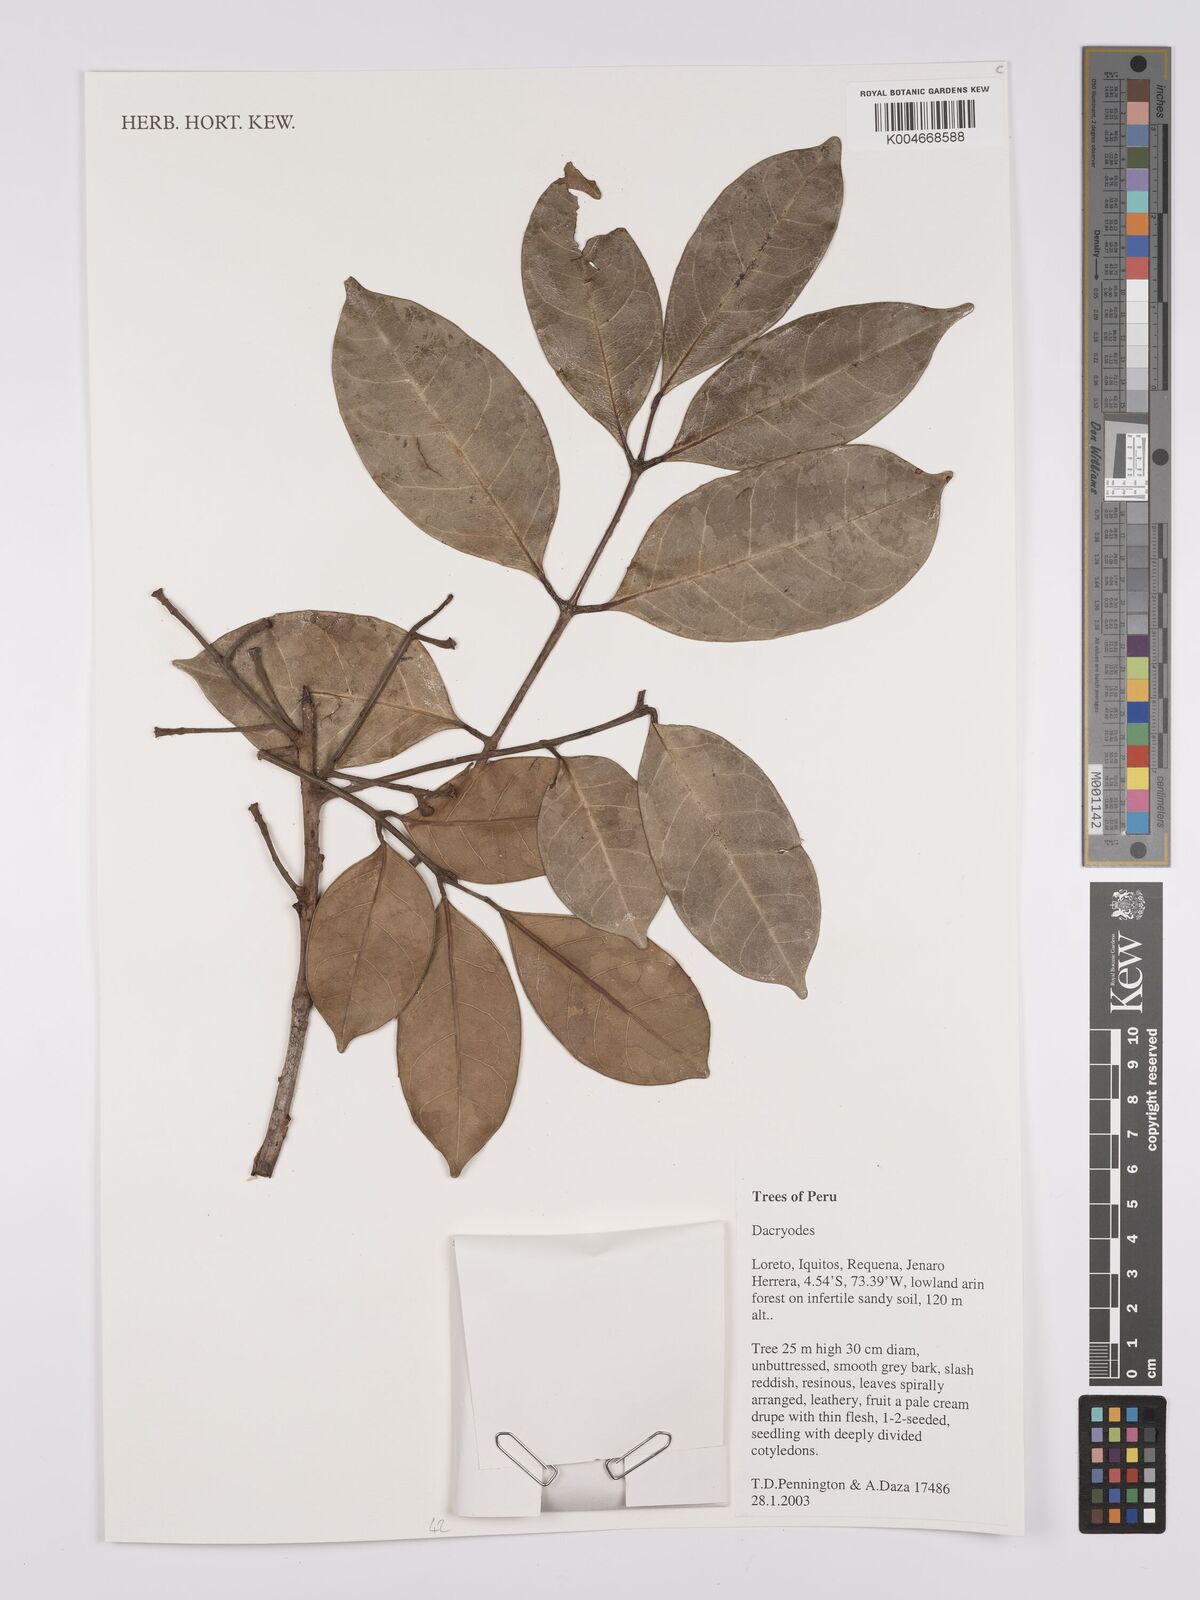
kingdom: Plantae
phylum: Tracheophyta
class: Magnoliopsida
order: Sapindales
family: Burseraceae
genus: Dacryodes
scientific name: Dacryodes
